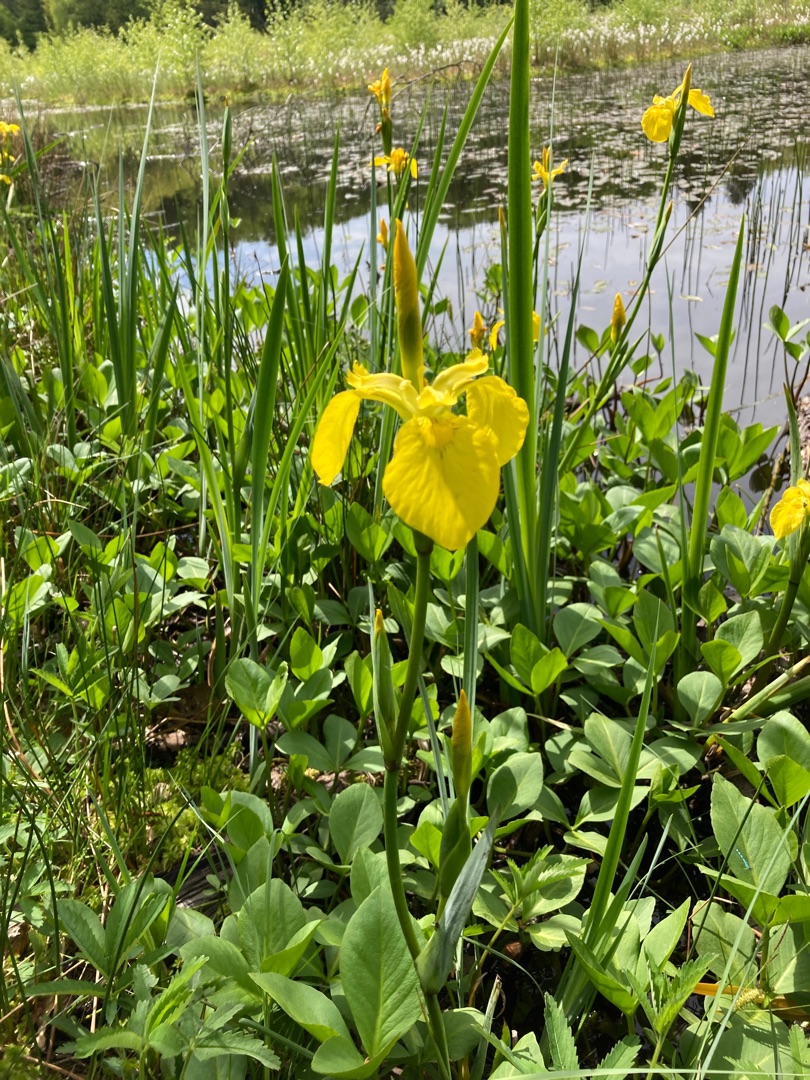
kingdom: Plantae
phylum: Tracheophyta
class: Liliopsida
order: Asparagales
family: Iridaceae
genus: Iris
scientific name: Iris pseudacorus
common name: Gul iris
